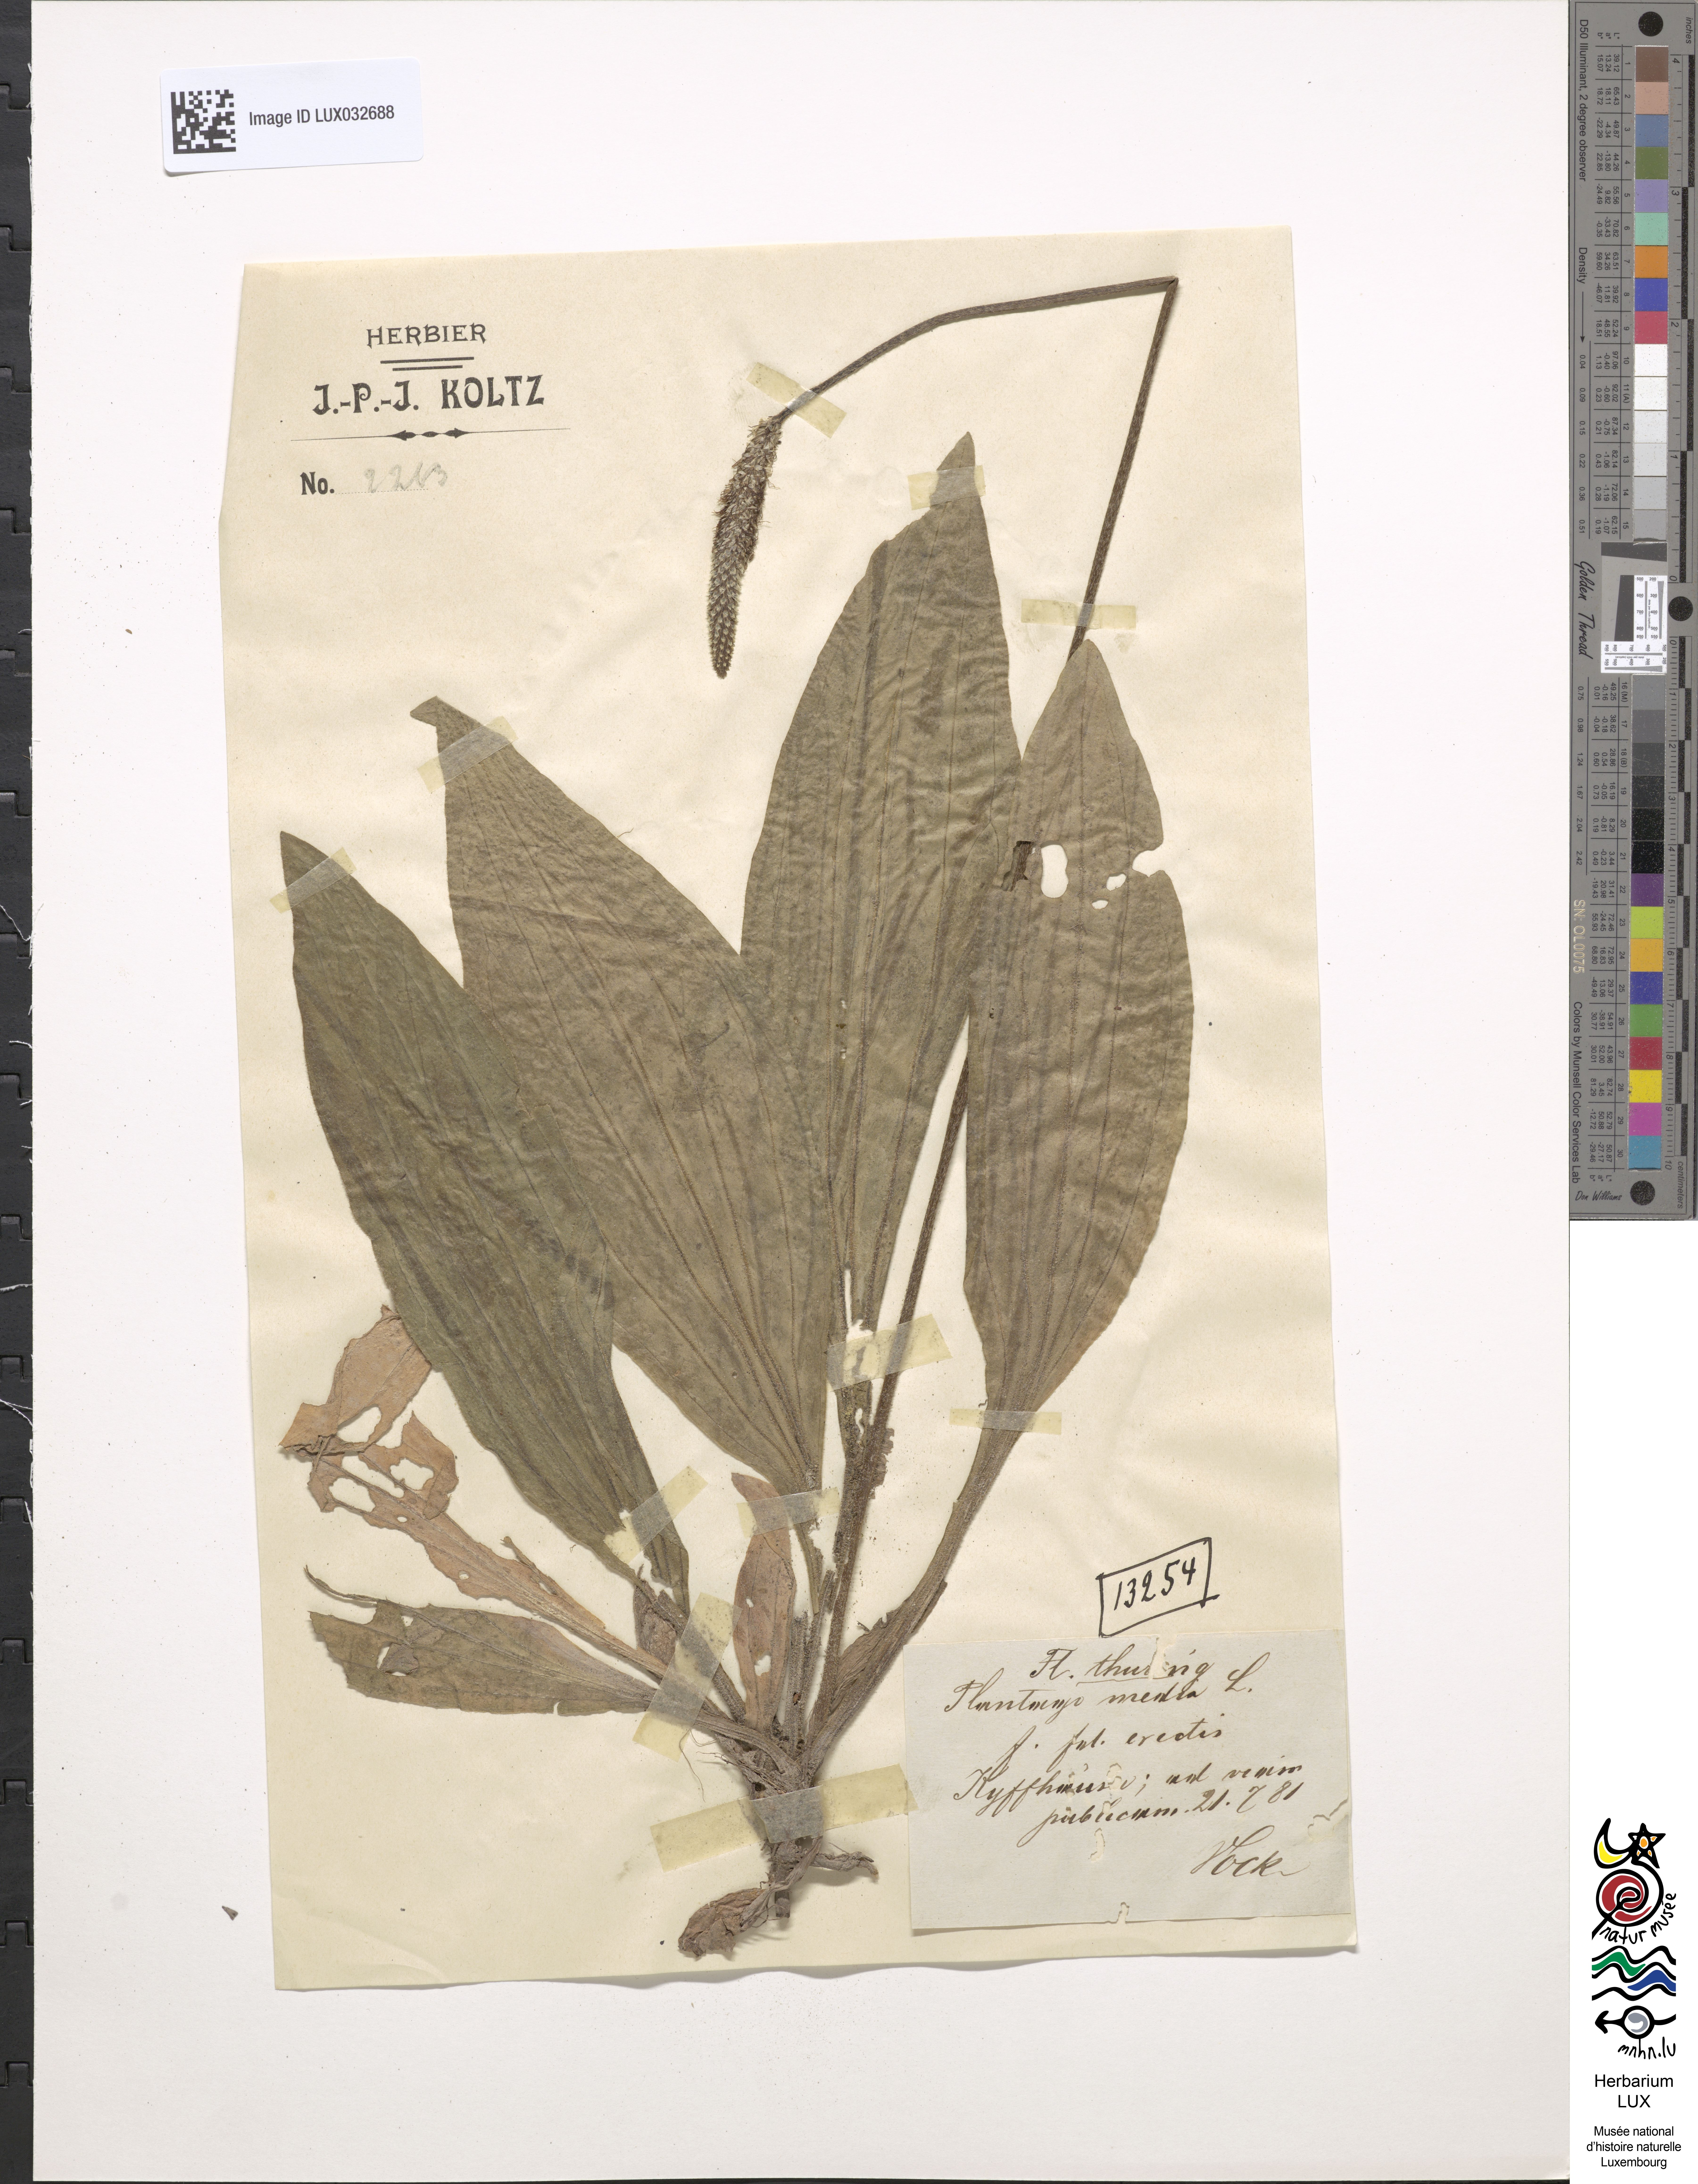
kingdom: Plantae
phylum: Tracheophyta
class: Magnoliopsida
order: Lamiales
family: Plantaginaceae
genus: Plantago
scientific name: Plantago media
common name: Hoary plantain
